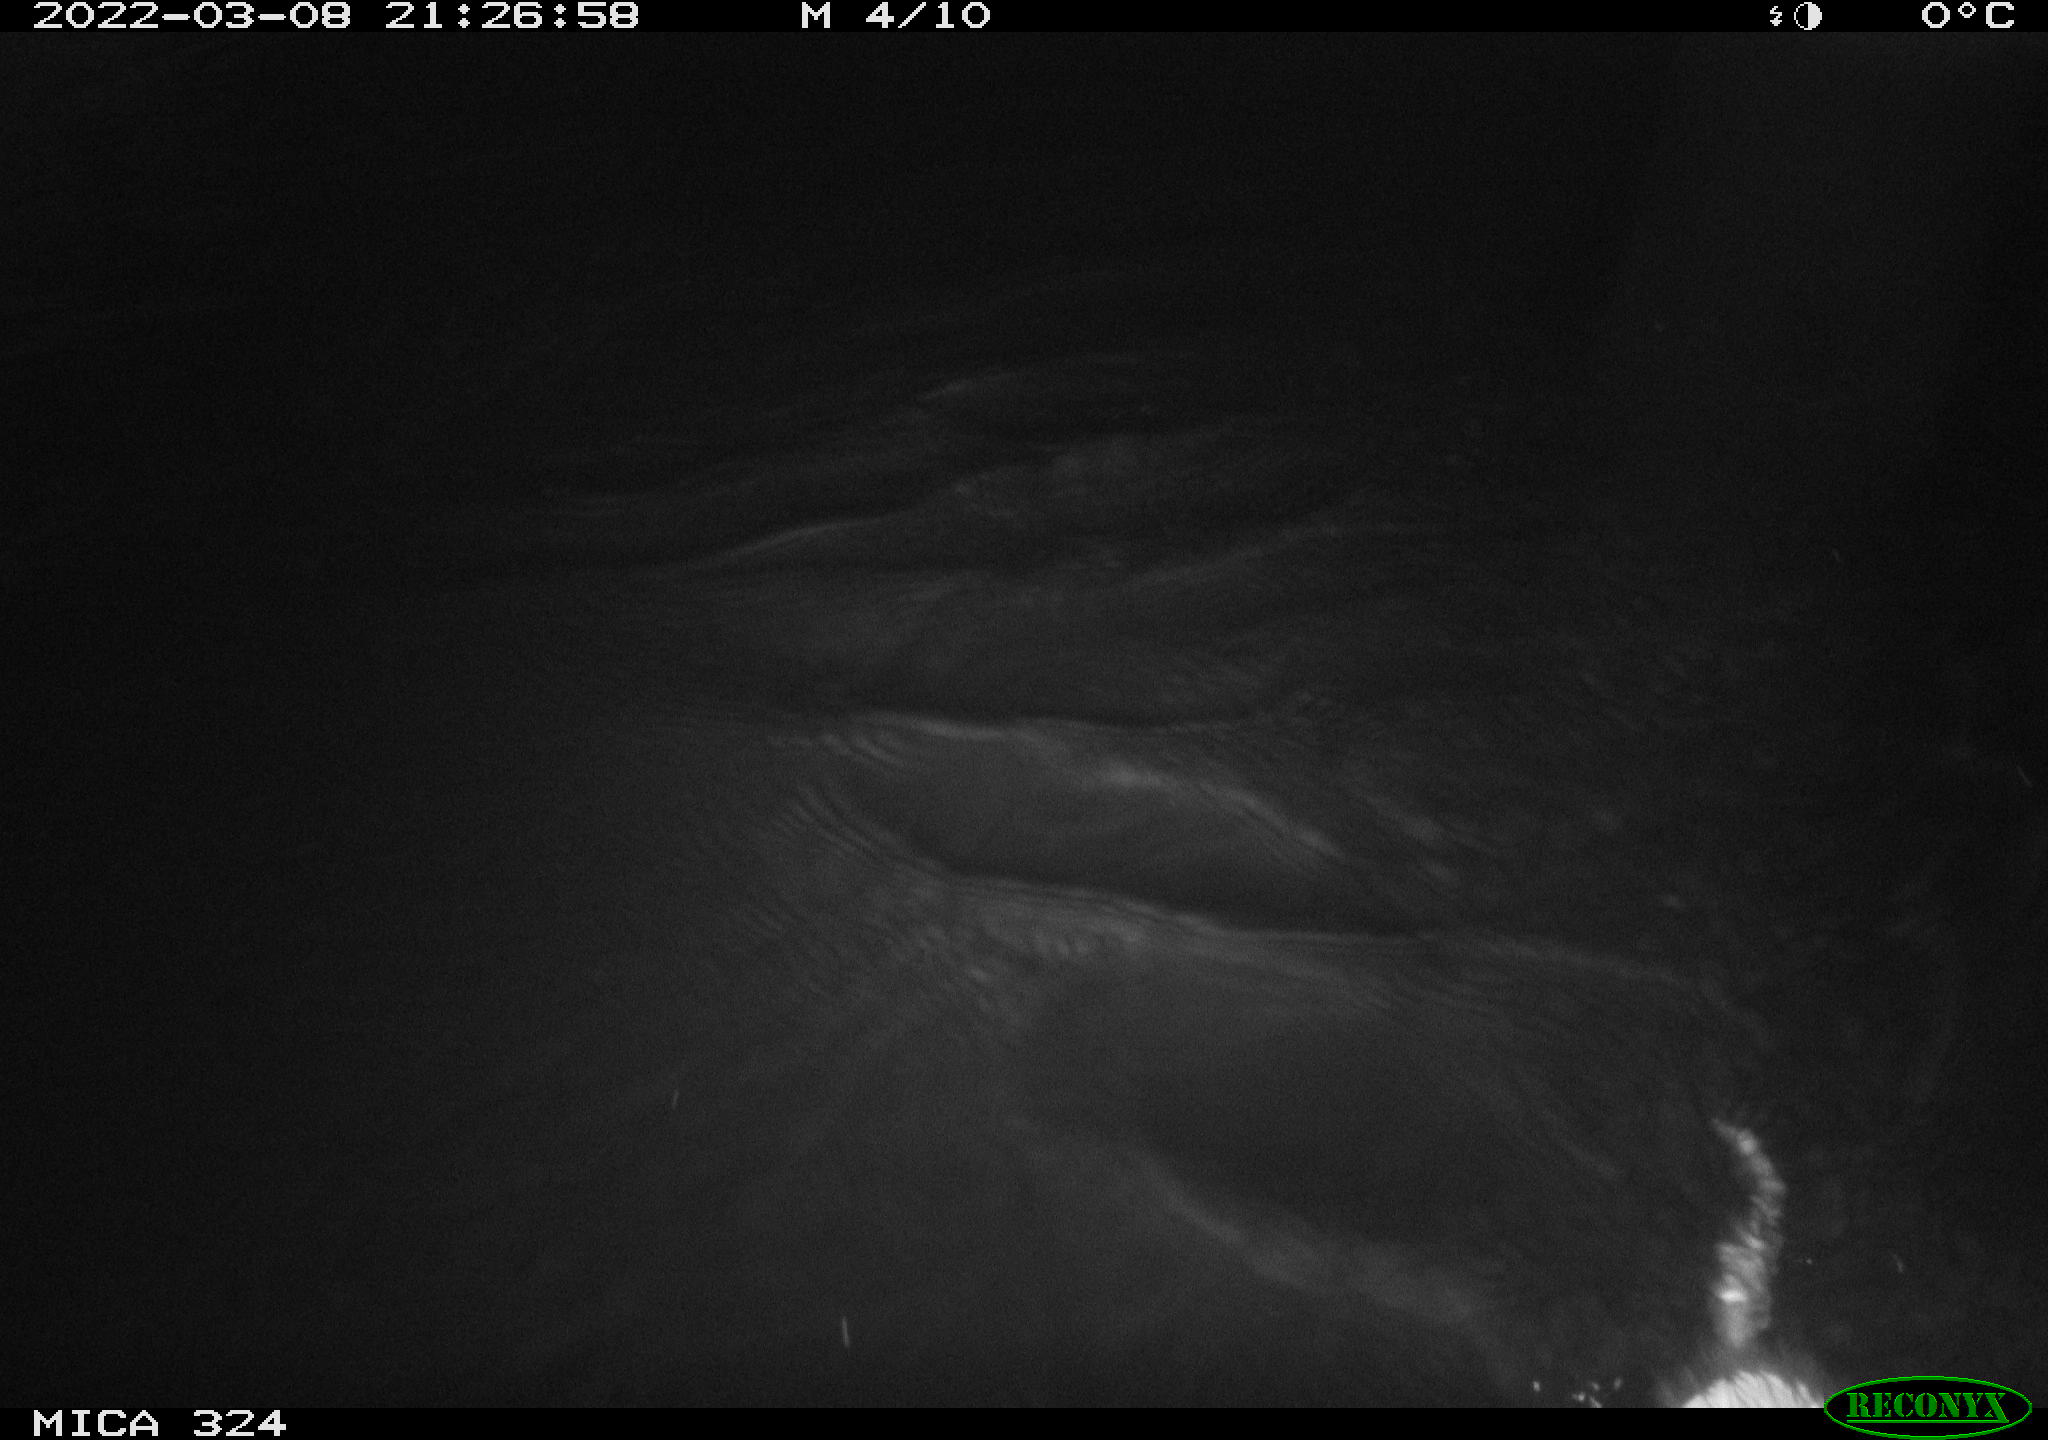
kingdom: Animalia
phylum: Chordata
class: Mammalia
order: Rodentia
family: Cricetidae
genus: Ondatra
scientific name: Ondatra zibethicus
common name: Muskrat
